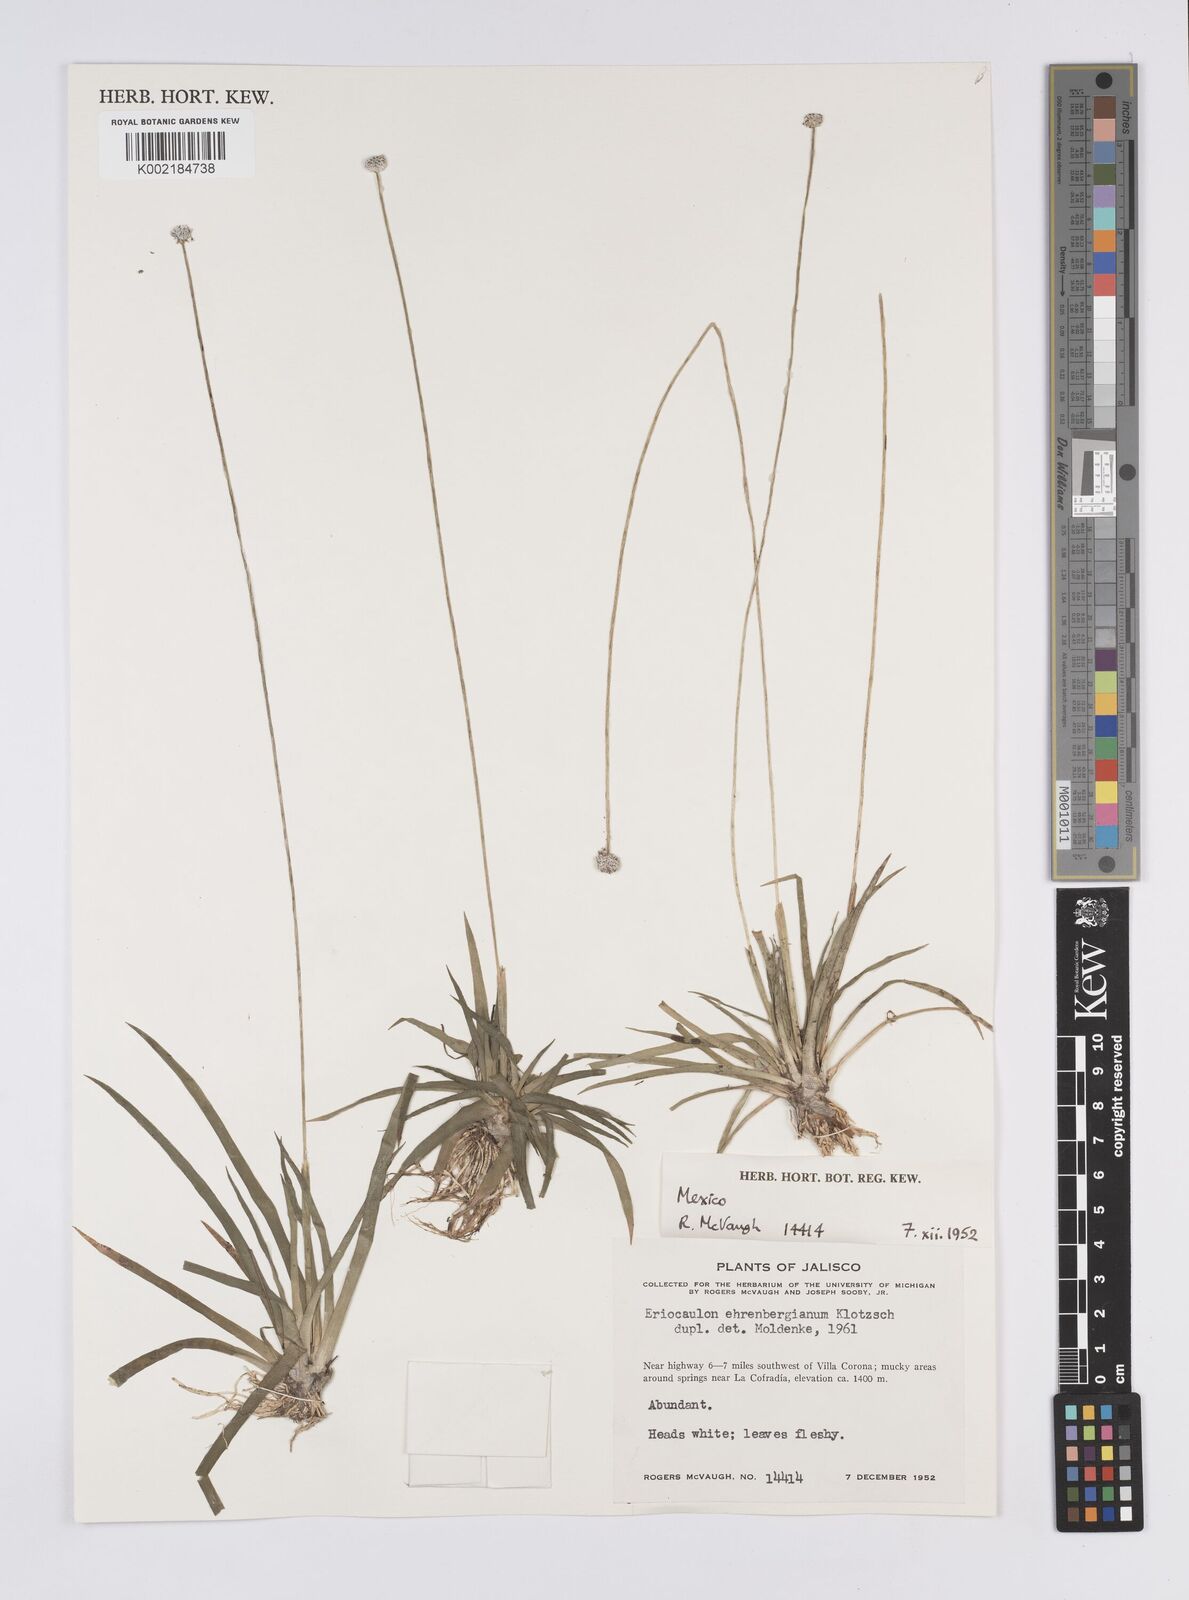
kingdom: Plantae
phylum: Tracheophyta
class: Liliopsida
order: Poales
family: Eriocaulaceae
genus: Eriocaulon
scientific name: Eriocaulon ehrenbergianum
